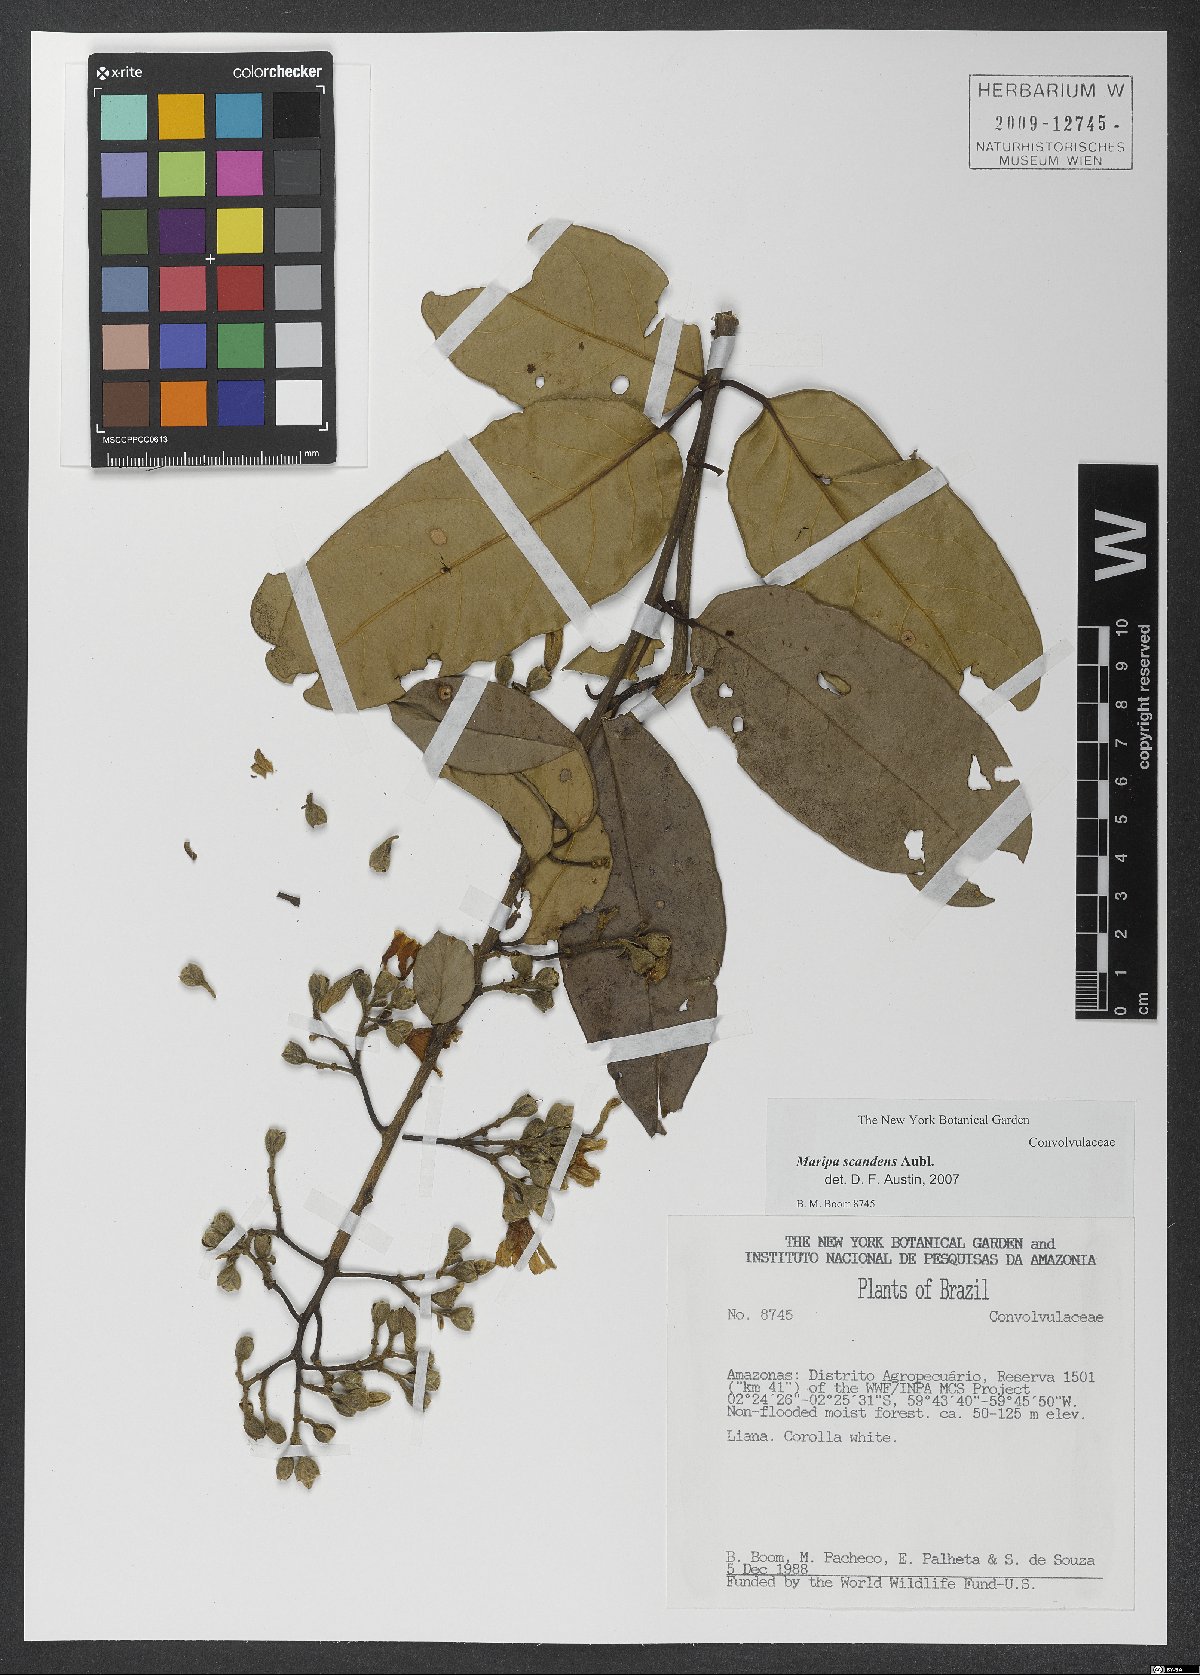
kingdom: Plantae
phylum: Tracheophyta
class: Magnoliopsida
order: Solanales
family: Convolvulaceae
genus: Maripa
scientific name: Maripa scandens
